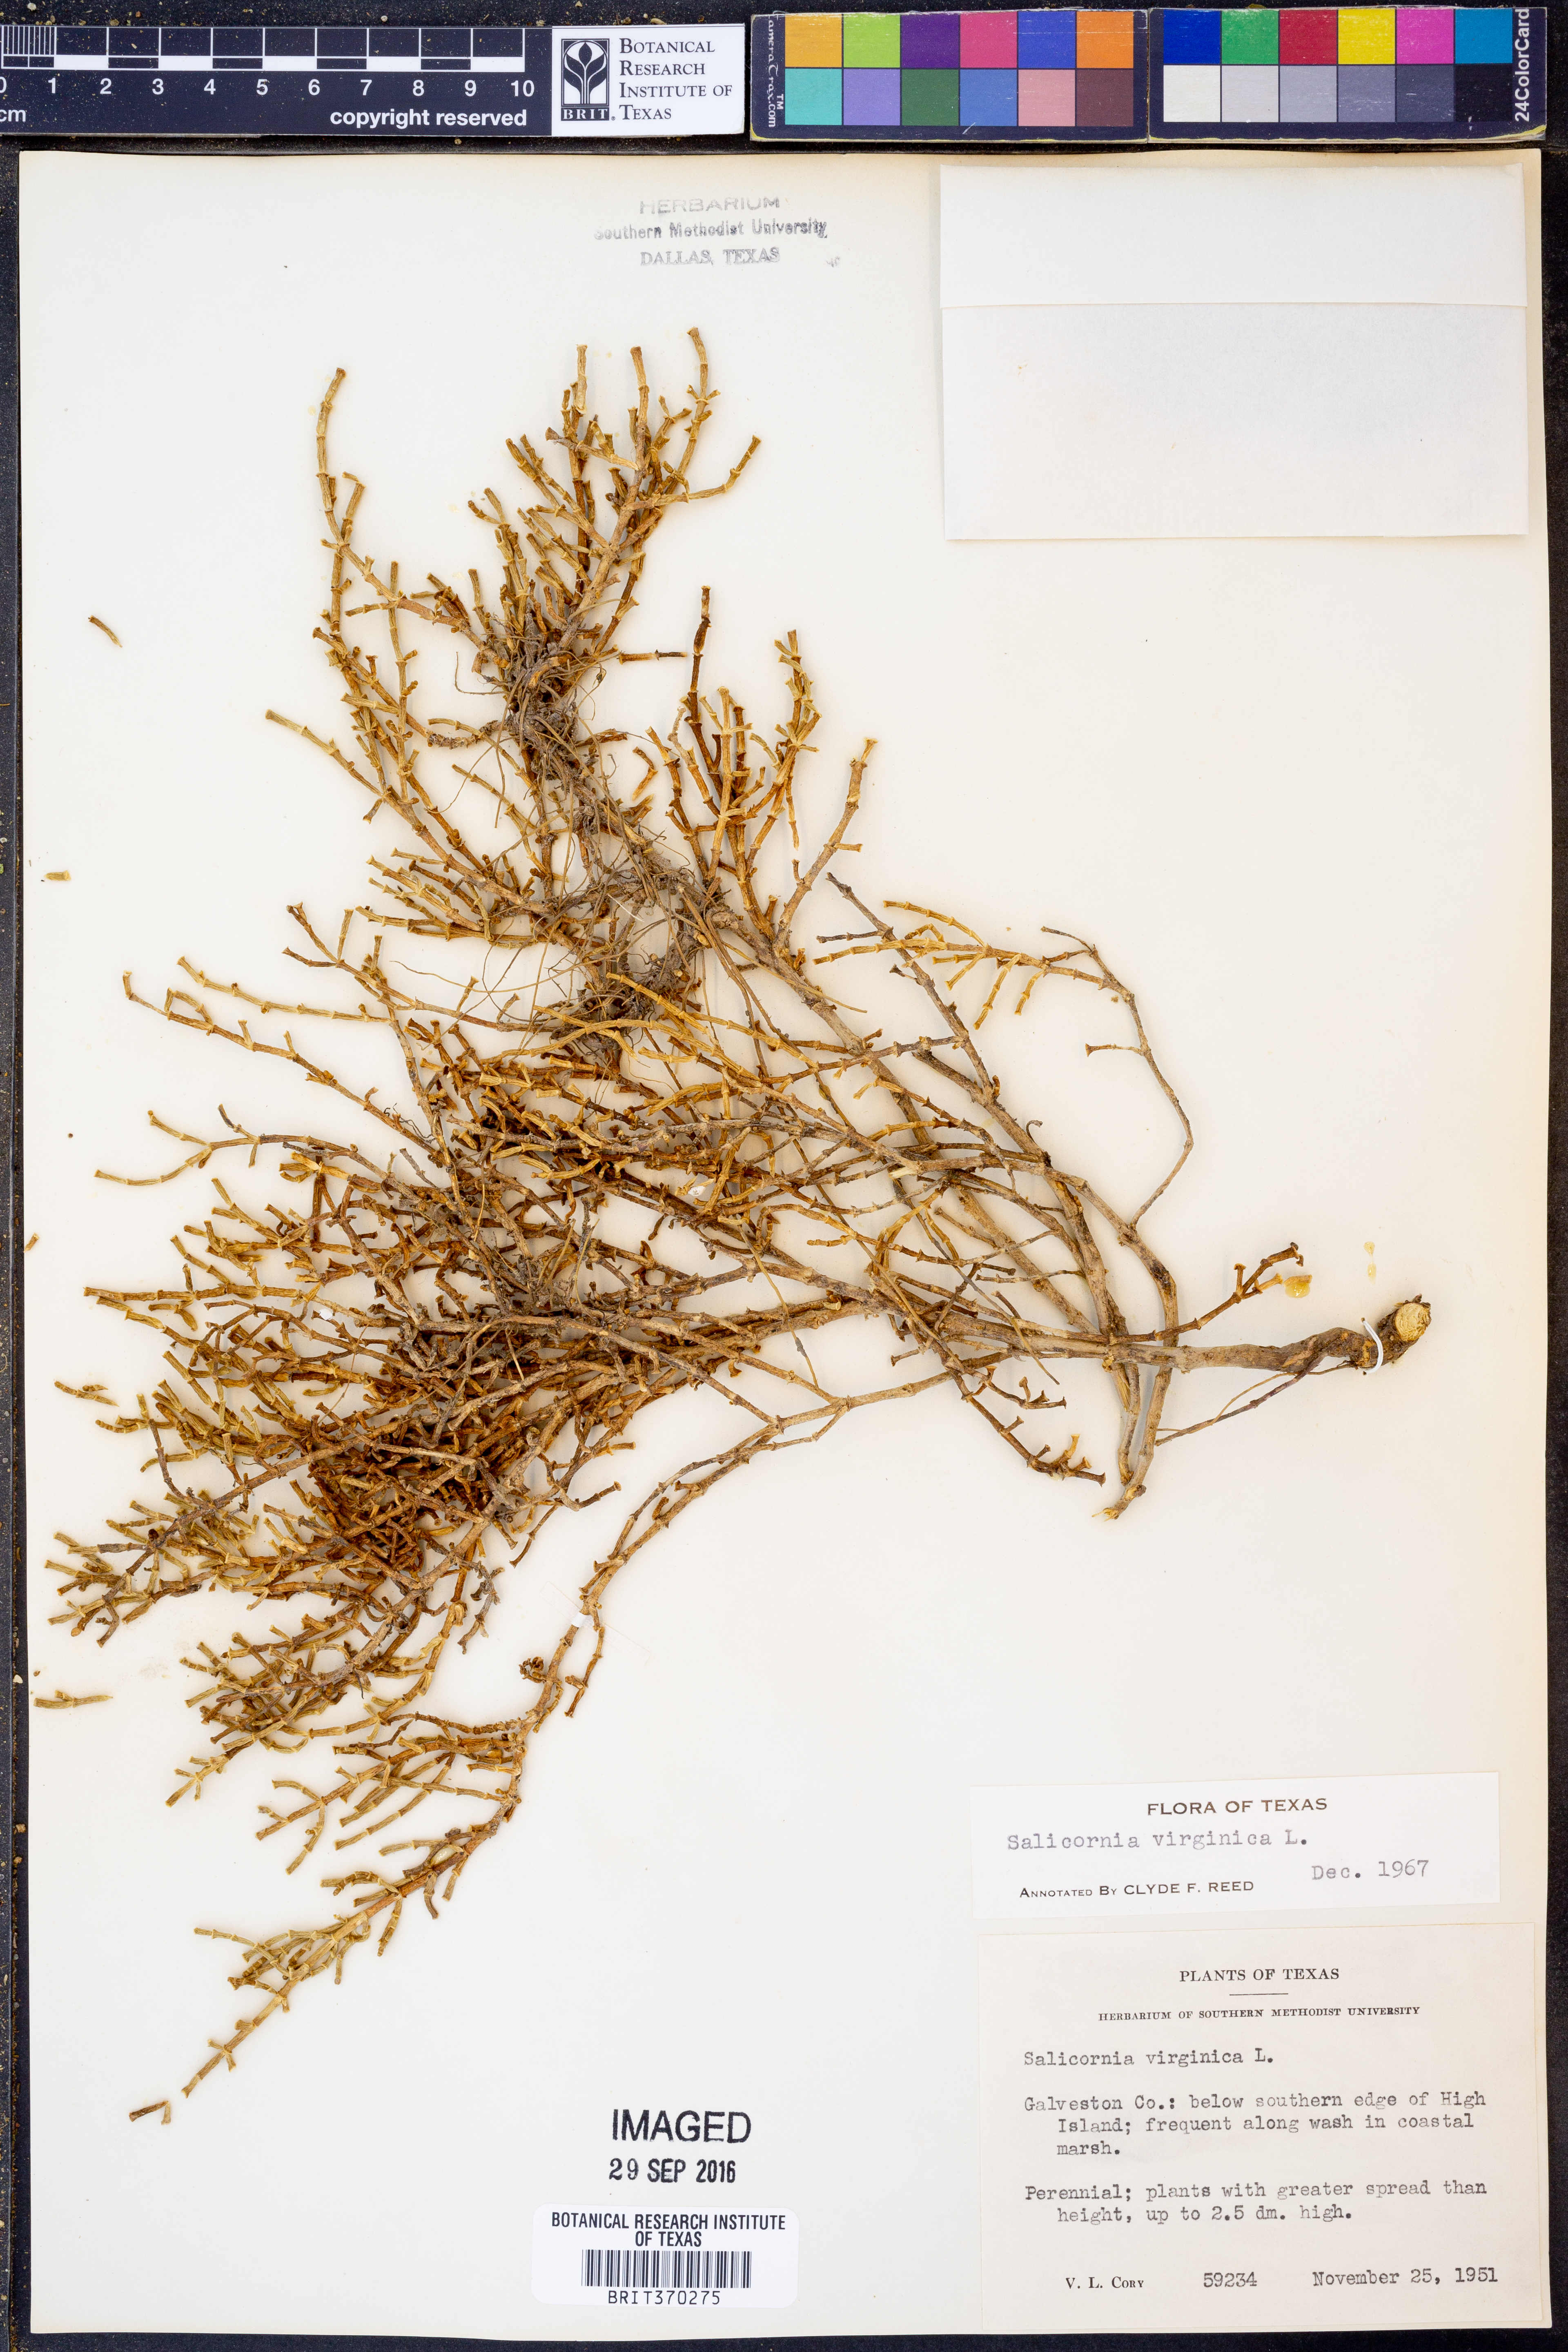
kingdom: Plantae
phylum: Tracheophyta
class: Magnoliopsida
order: Caryophyllales
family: Amaranthaceae
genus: Salicornia
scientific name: Salicornia virginica
